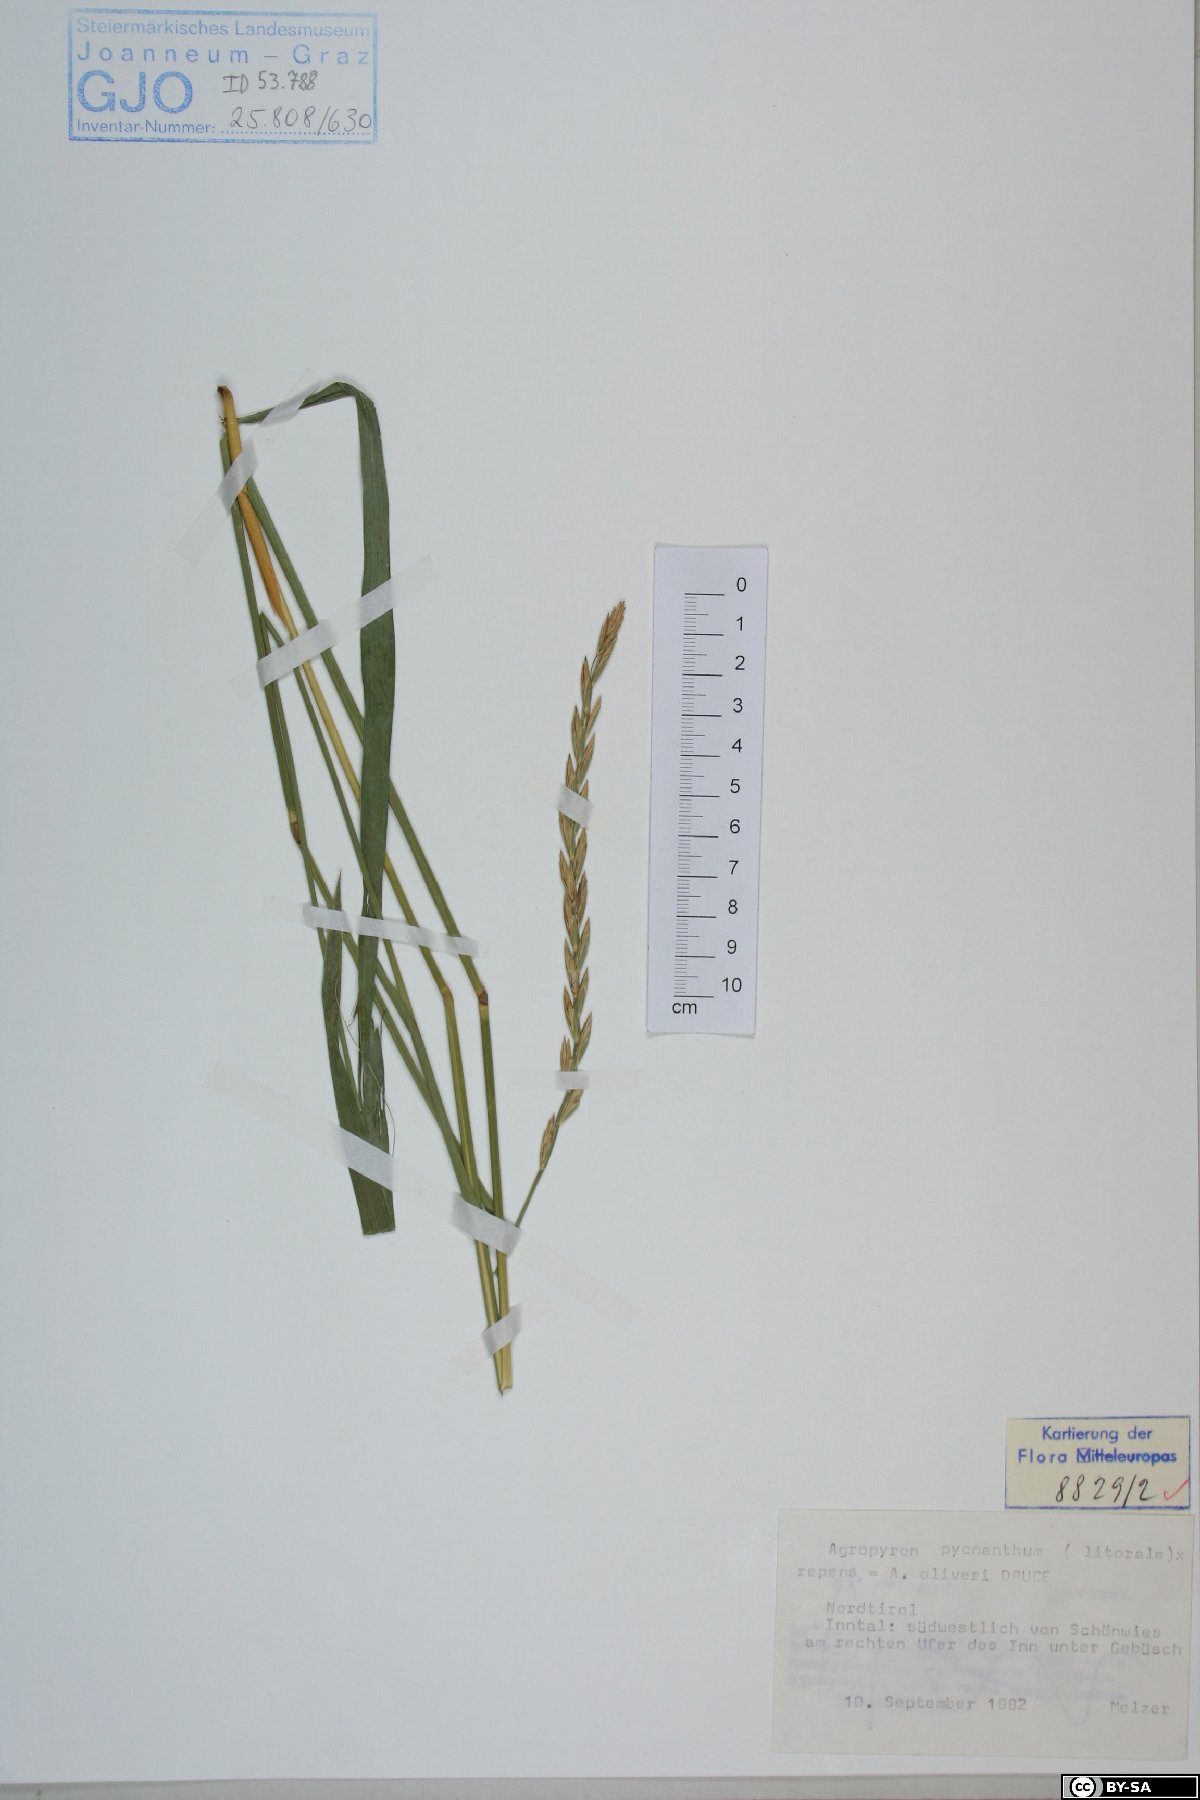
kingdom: Plantae
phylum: Tracheophyta
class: Liliopsida
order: Poales
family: Poaceae
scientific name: Poaceae
